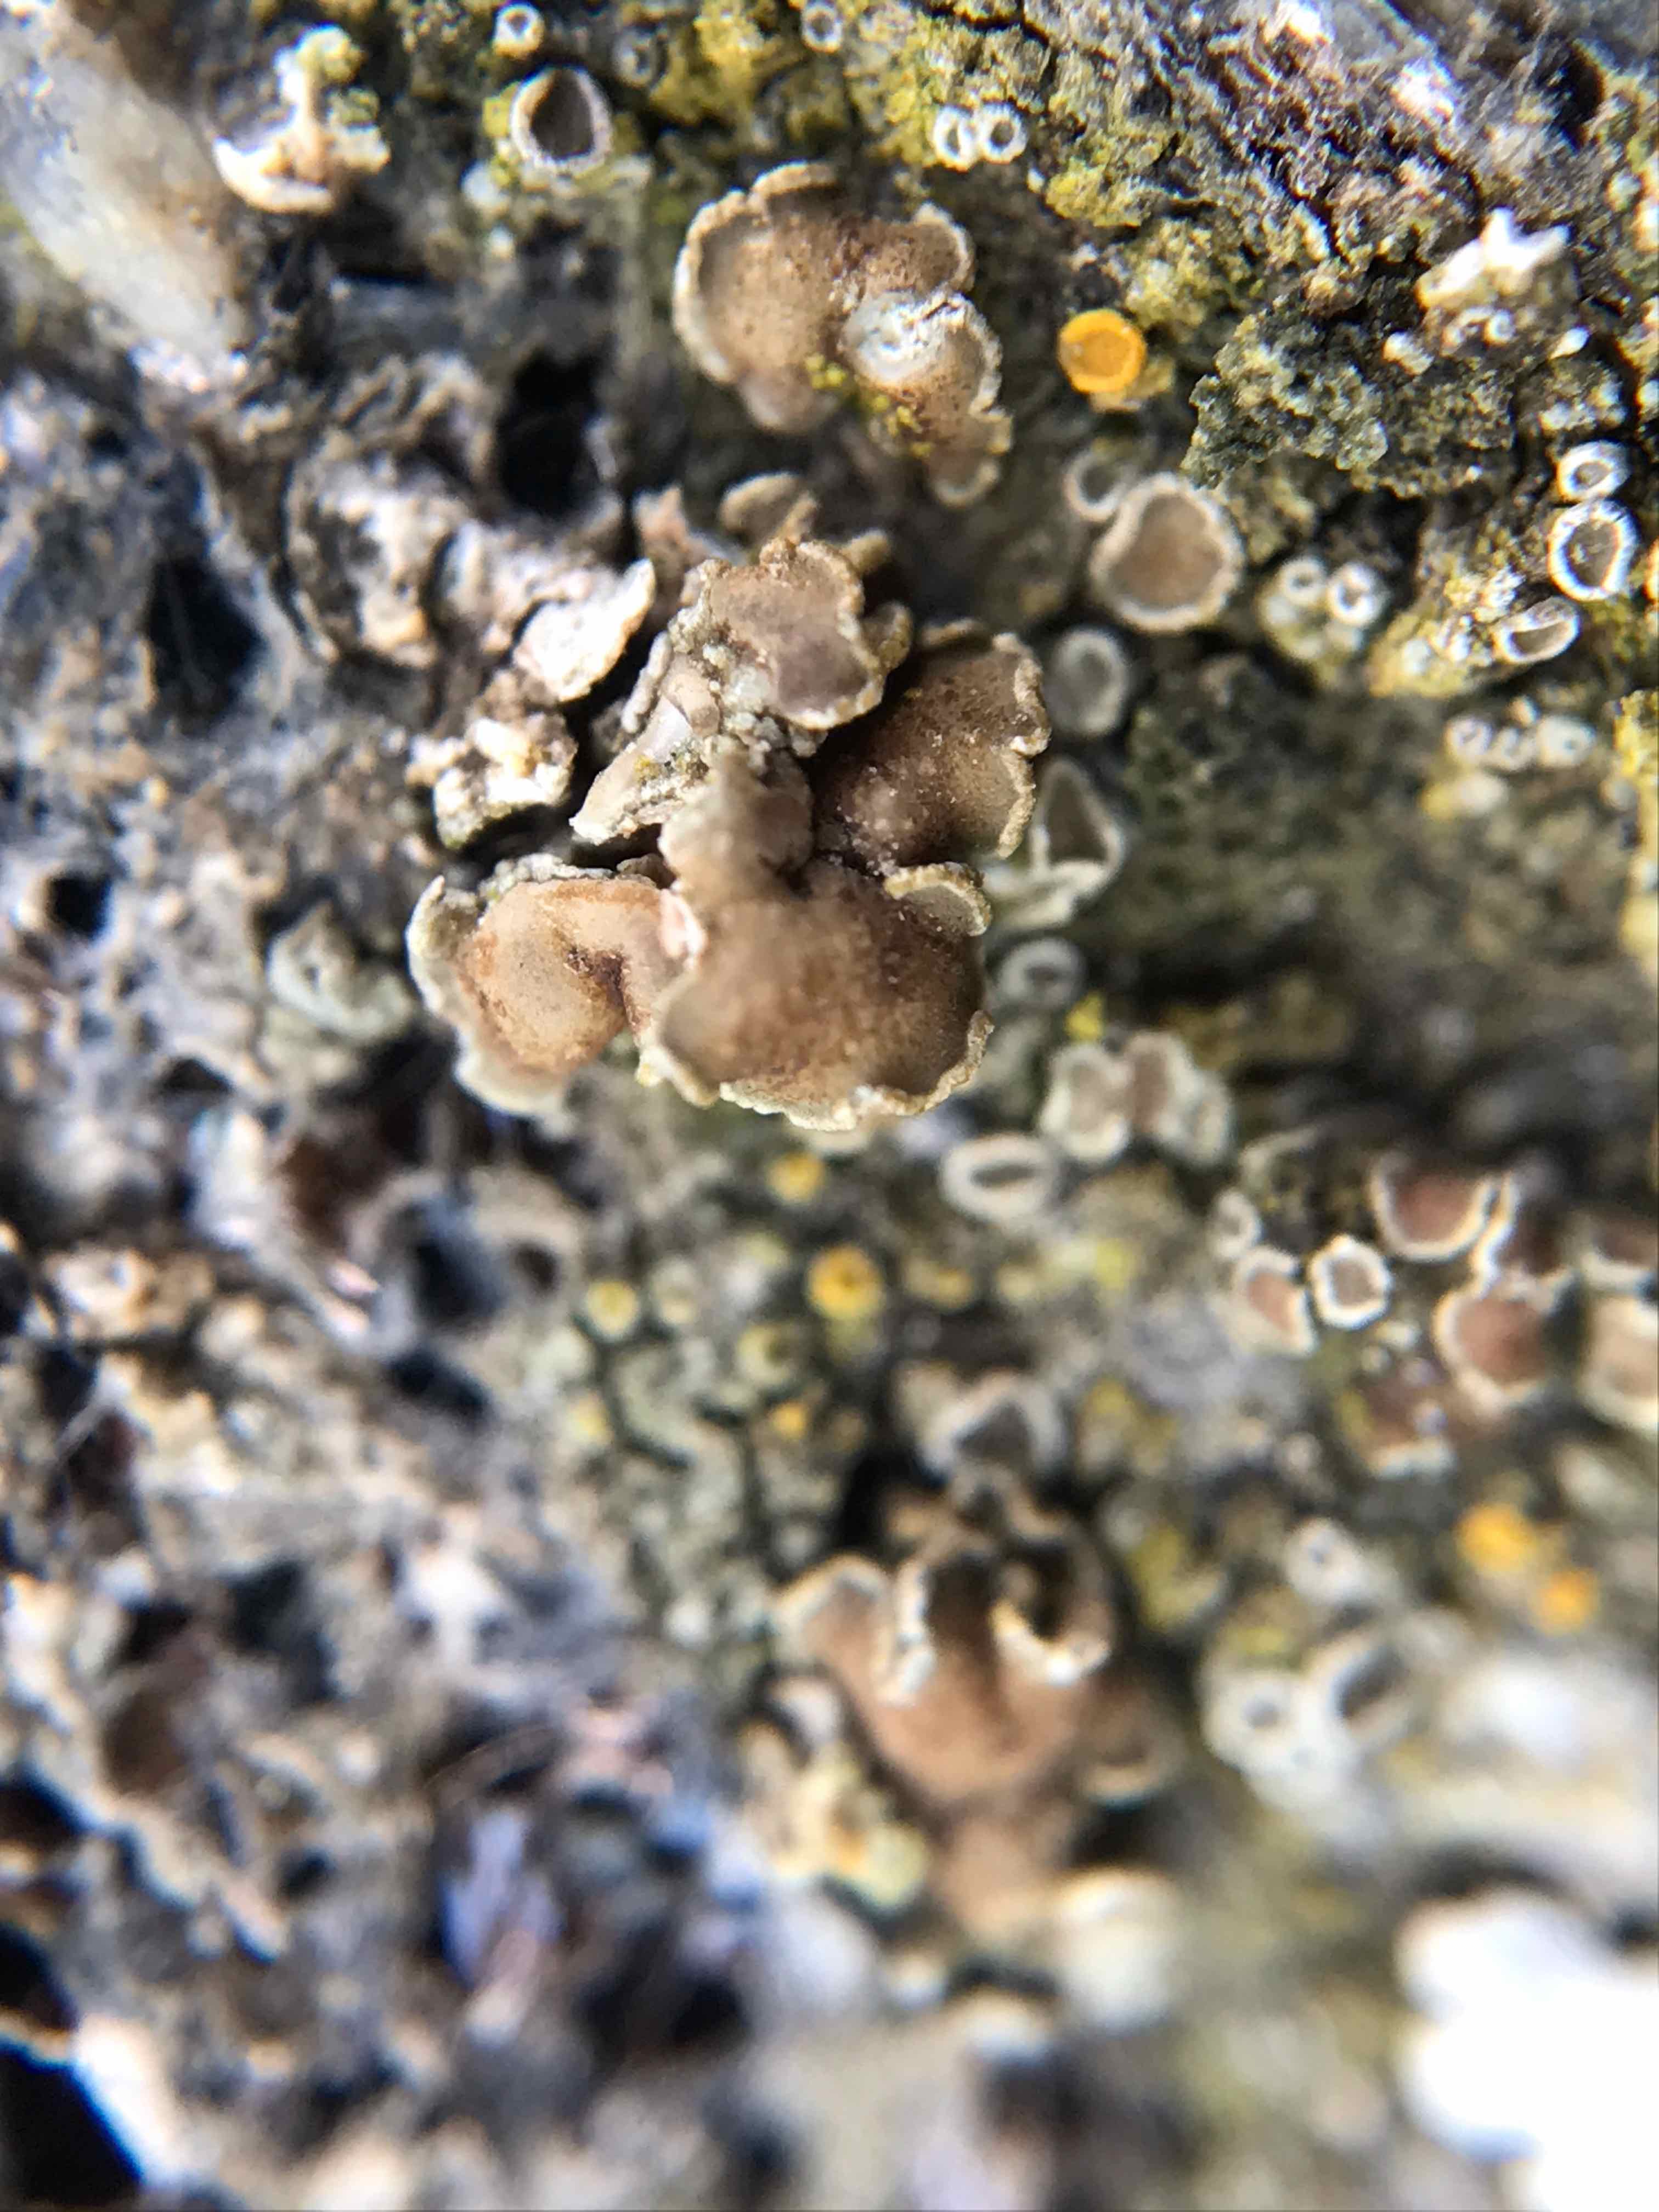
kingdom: Fungi
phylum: Ascomycota
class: Lecanoromycetes
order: Lecanorales
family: Lecanoraceae
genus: Myriolecis
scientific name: Myriolecis
